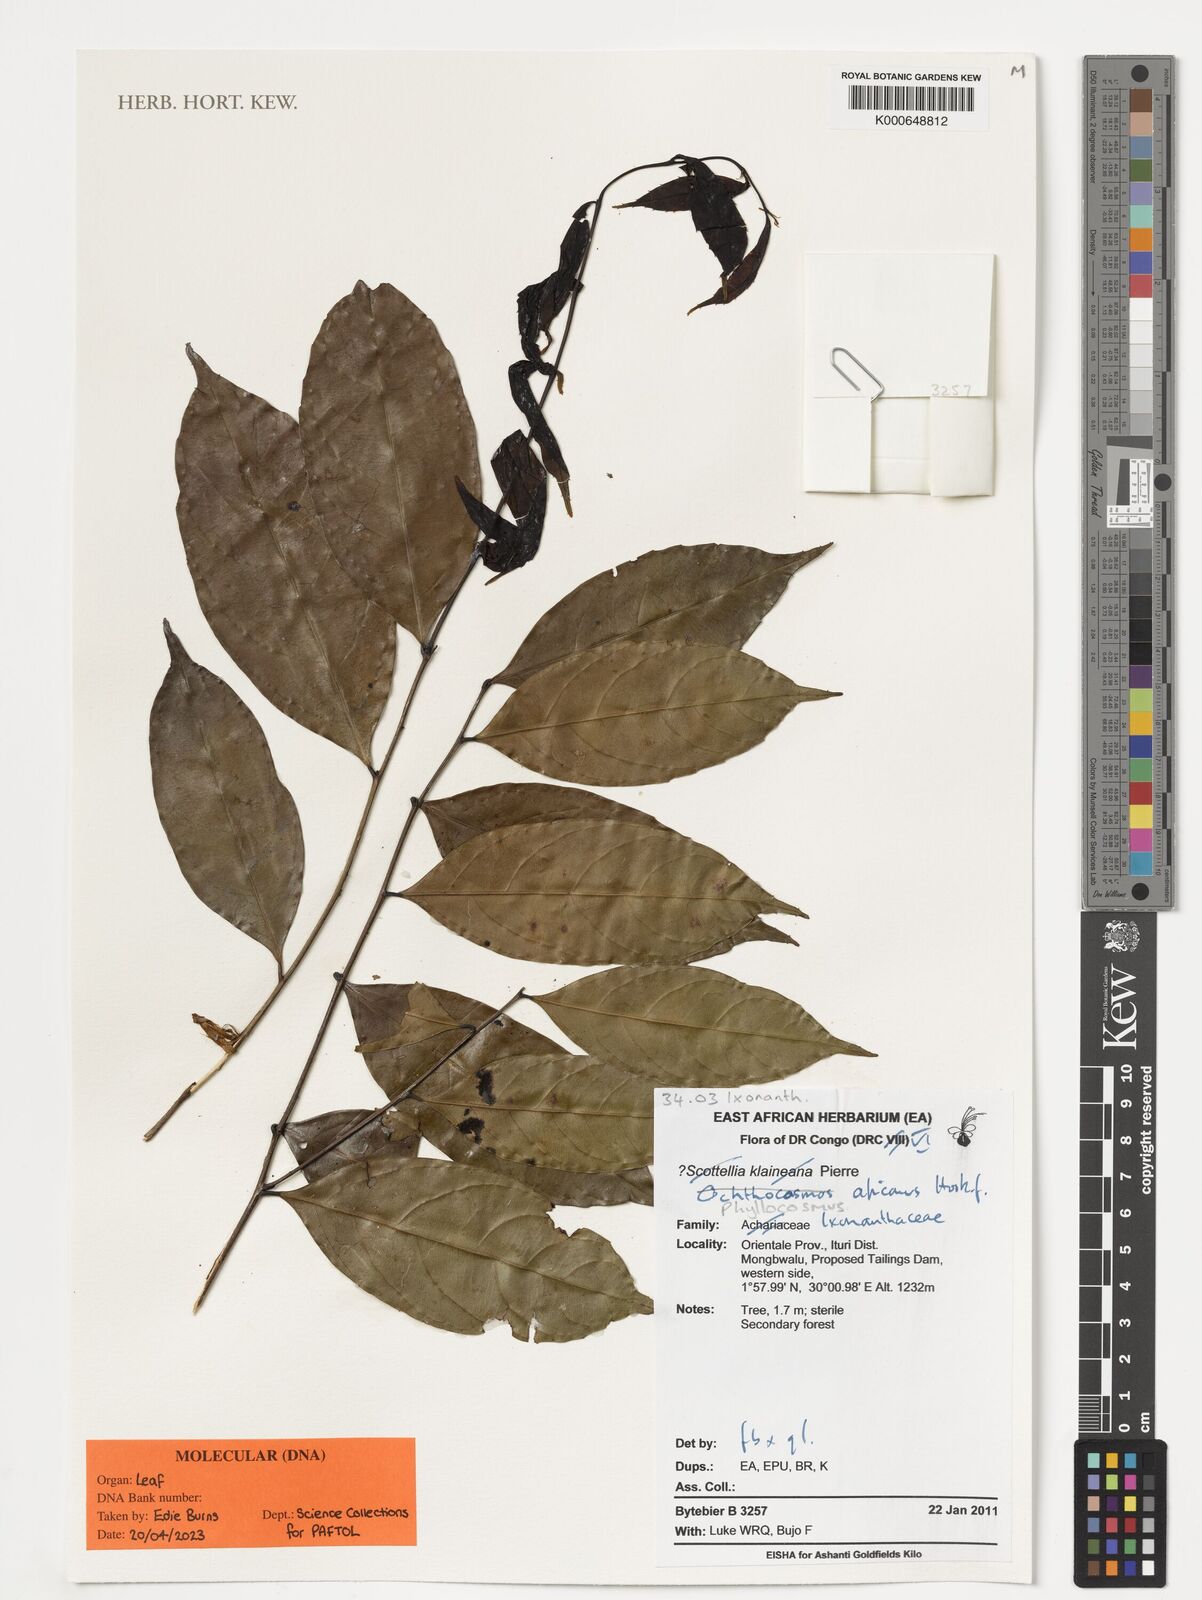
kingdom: Plantae
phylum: Tracheophyta
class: Magnoliopsida
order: Malpighiales
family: Ixonanthaceae
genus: Phyllocosmus
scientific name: Phyllocosmus africanus
